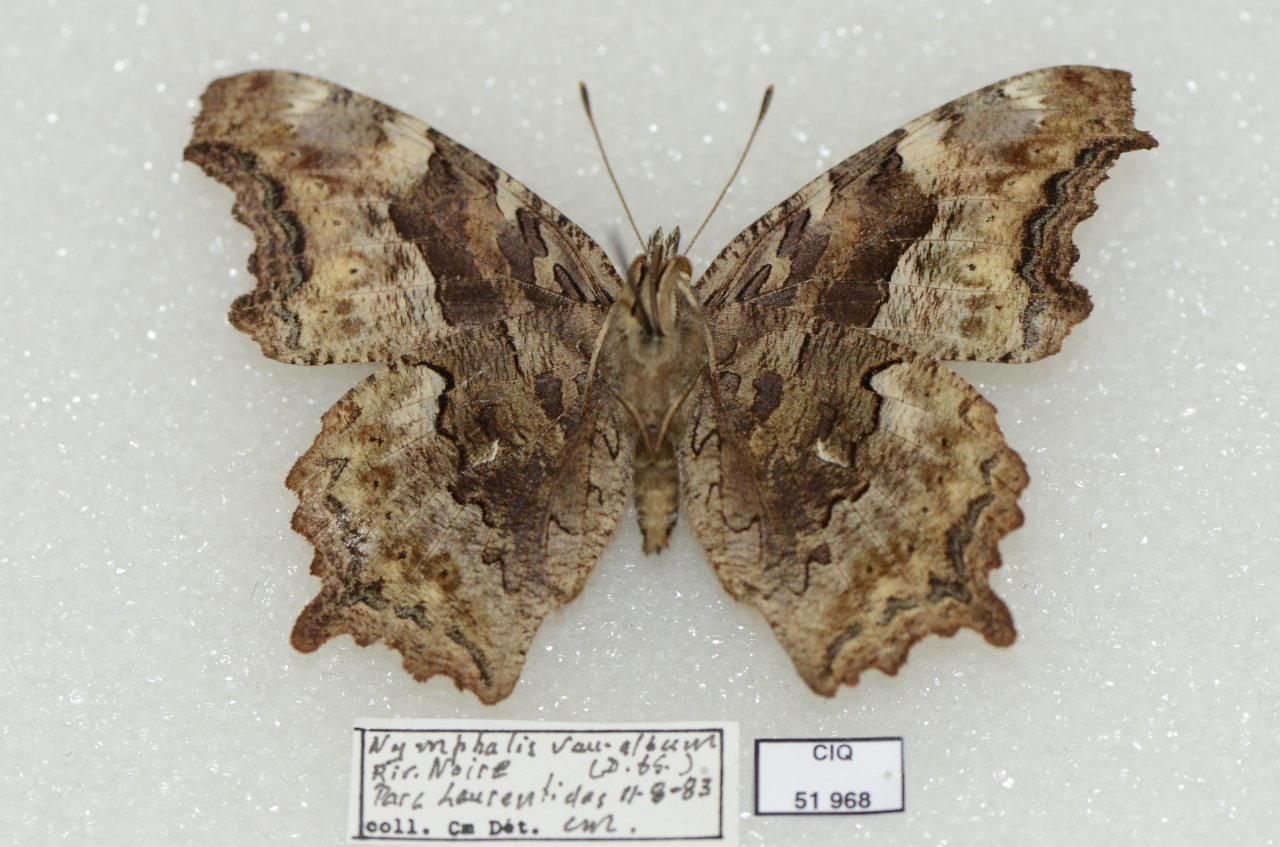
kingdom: Animalia
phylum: Arthropoda
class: Insecta
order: Lepidoptera
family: Nymphalidae
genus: Polygonia
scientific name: Polygonia vaualbum
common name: Compton Tortoiseshell
